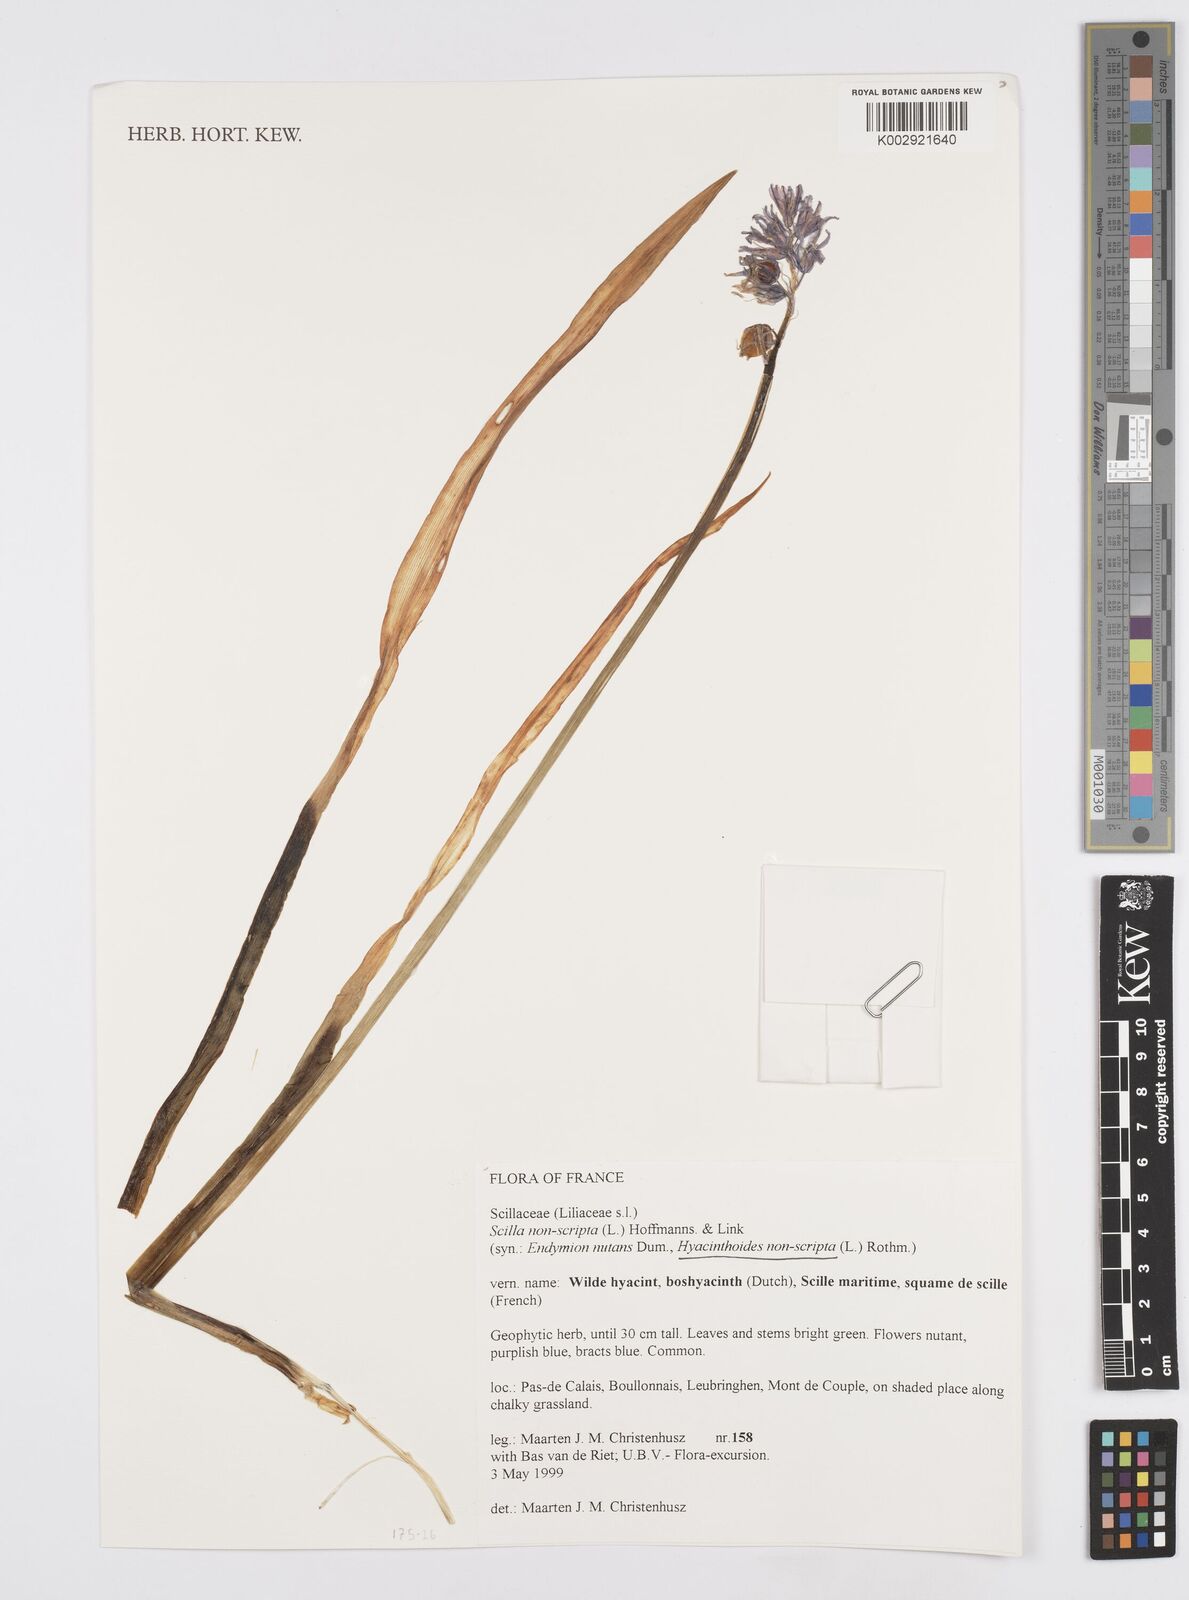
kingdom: Plantae
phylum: Tracheophyta
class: Liliopsida
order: Asparagales
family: Asparagaceae
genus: Hyacinthoides
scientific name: Hyacinthoides non-scripta
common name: Bluebell
